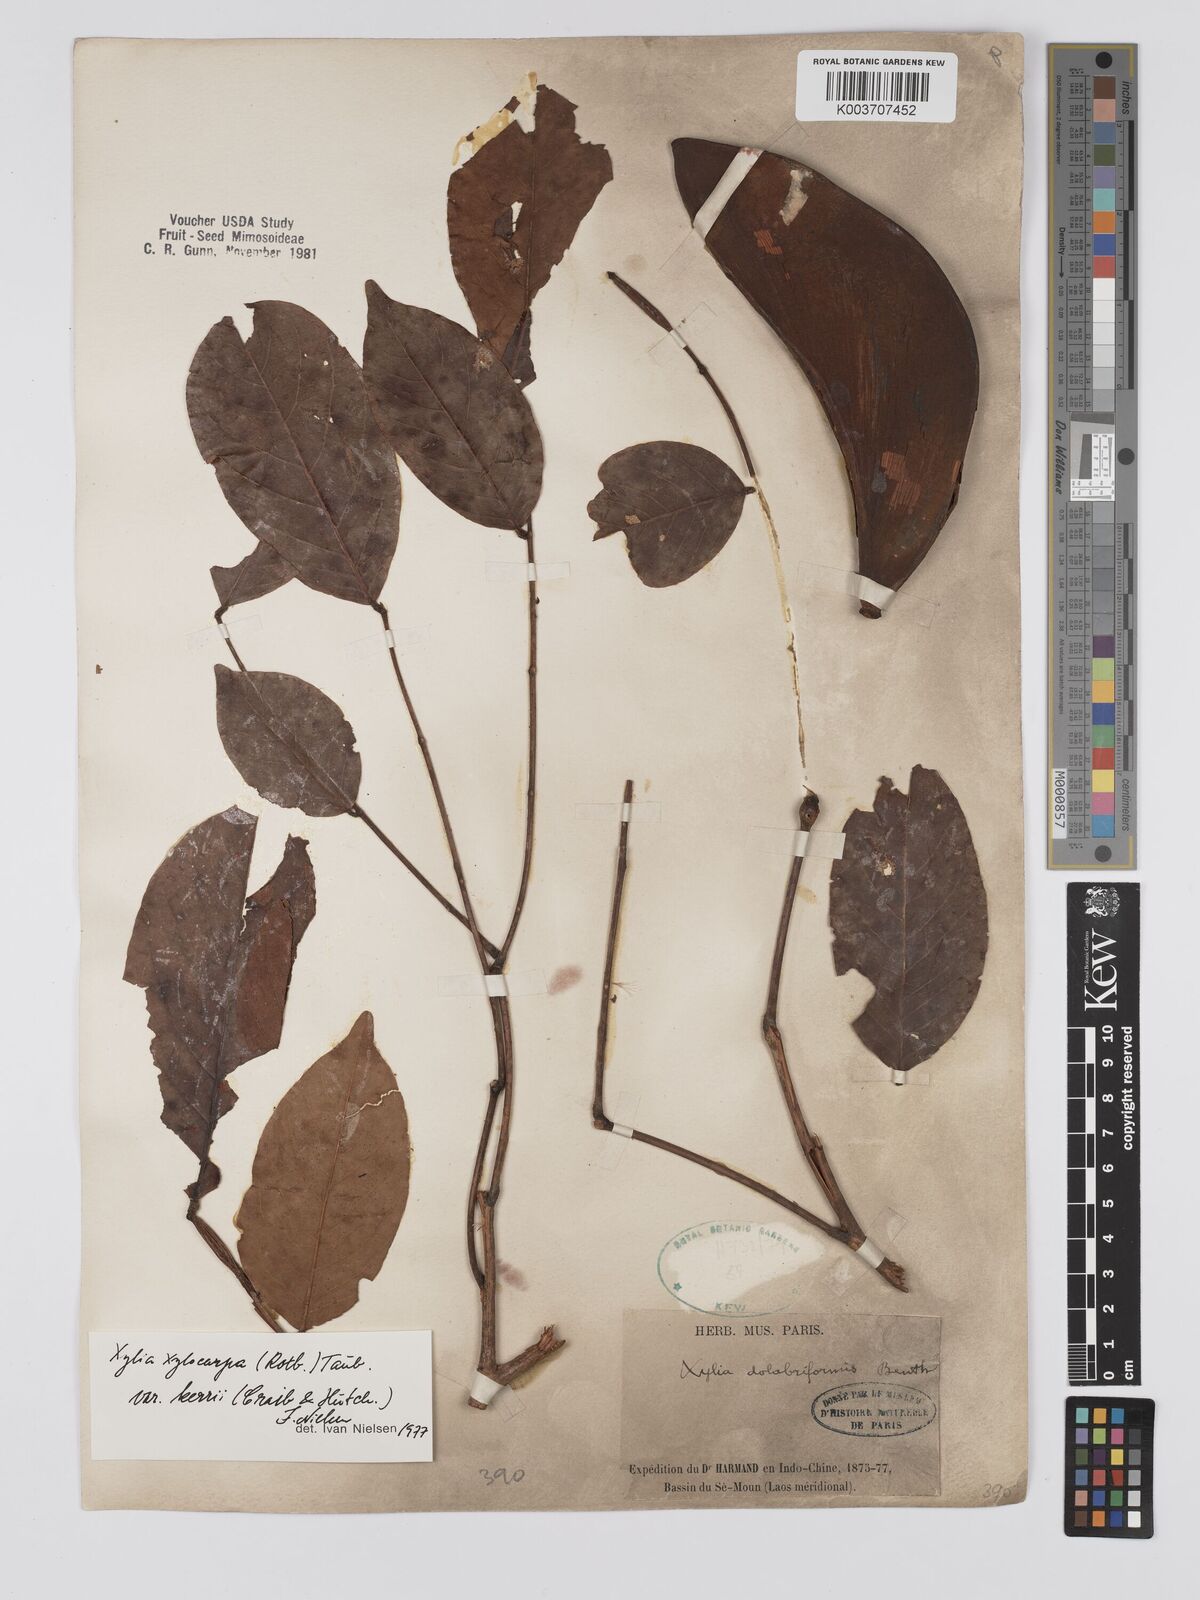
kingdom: Plantae
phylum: Tracheophyta
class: Magnoliopsida
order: Fabales
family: Fabaceae
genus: Xylia
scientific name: Xylia xylocarpa
